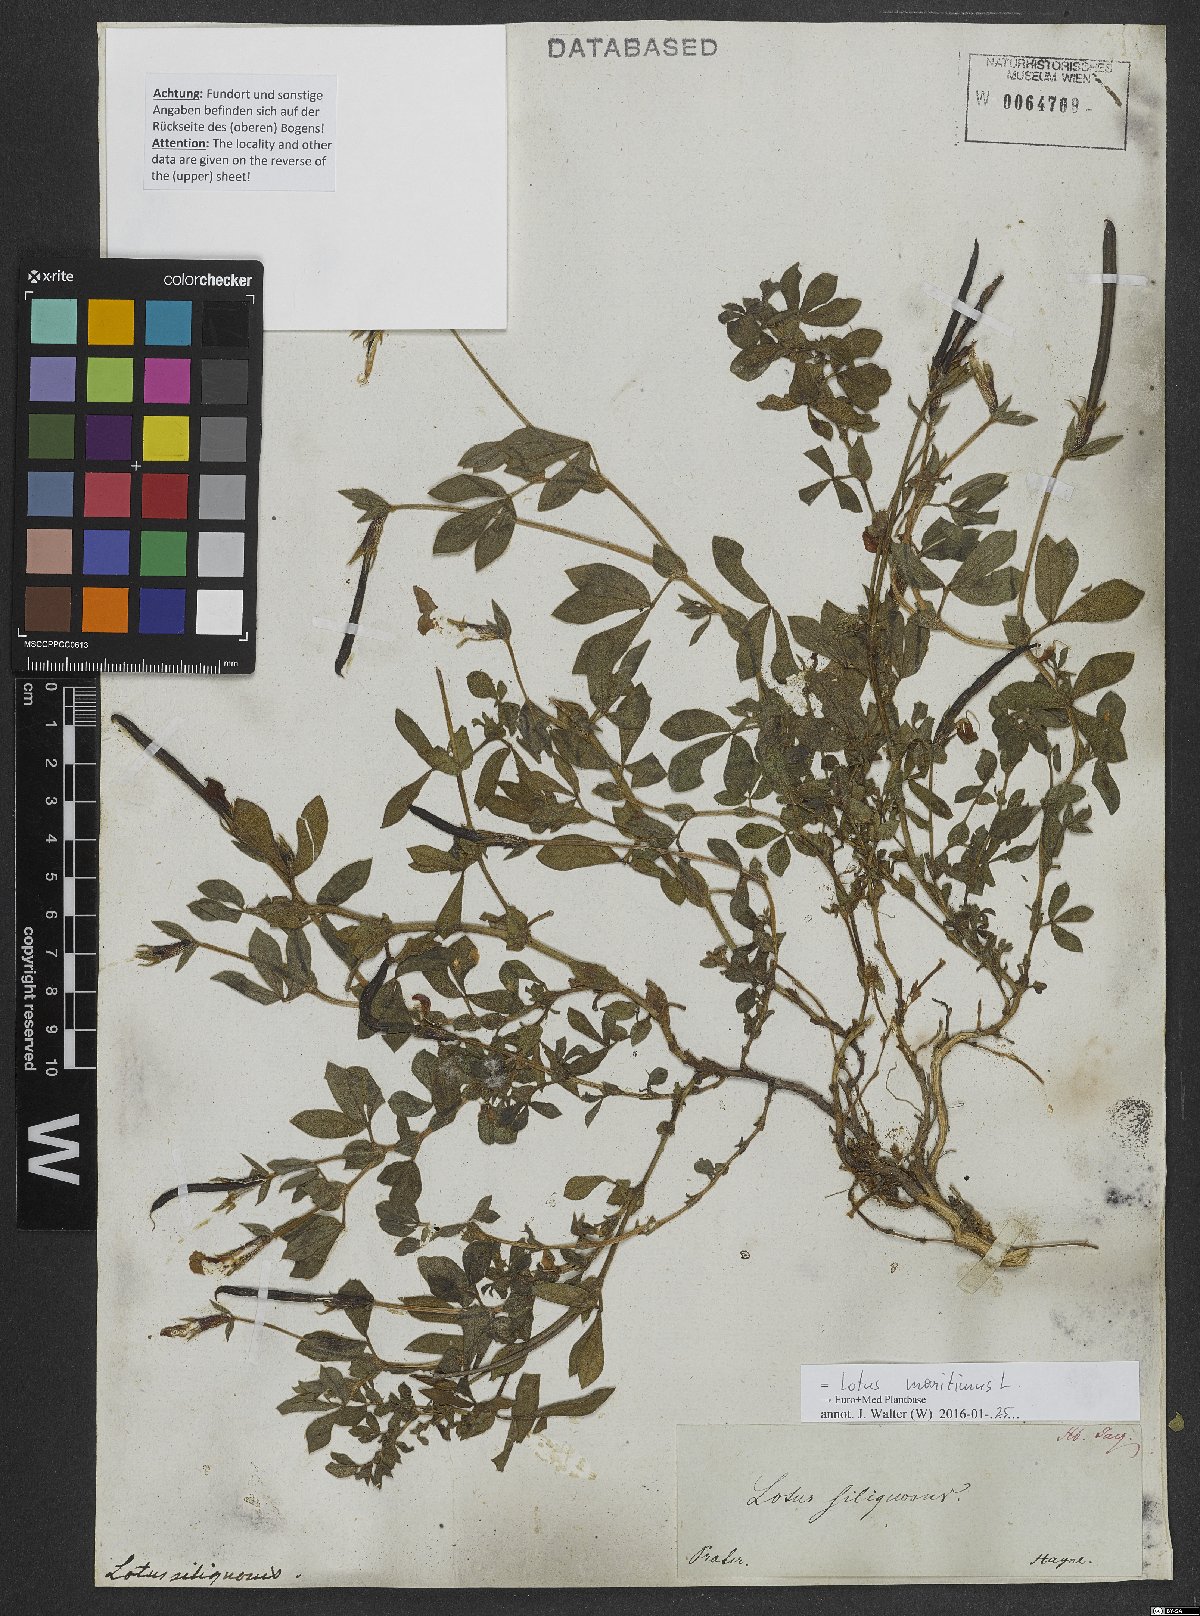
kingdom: Plantae
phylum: Tracheophyta
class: Magnoliopsida
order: Fabales
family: Fabaceae
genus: Lotus
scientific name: Lotus maritimus
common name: Dragon's-teeth
